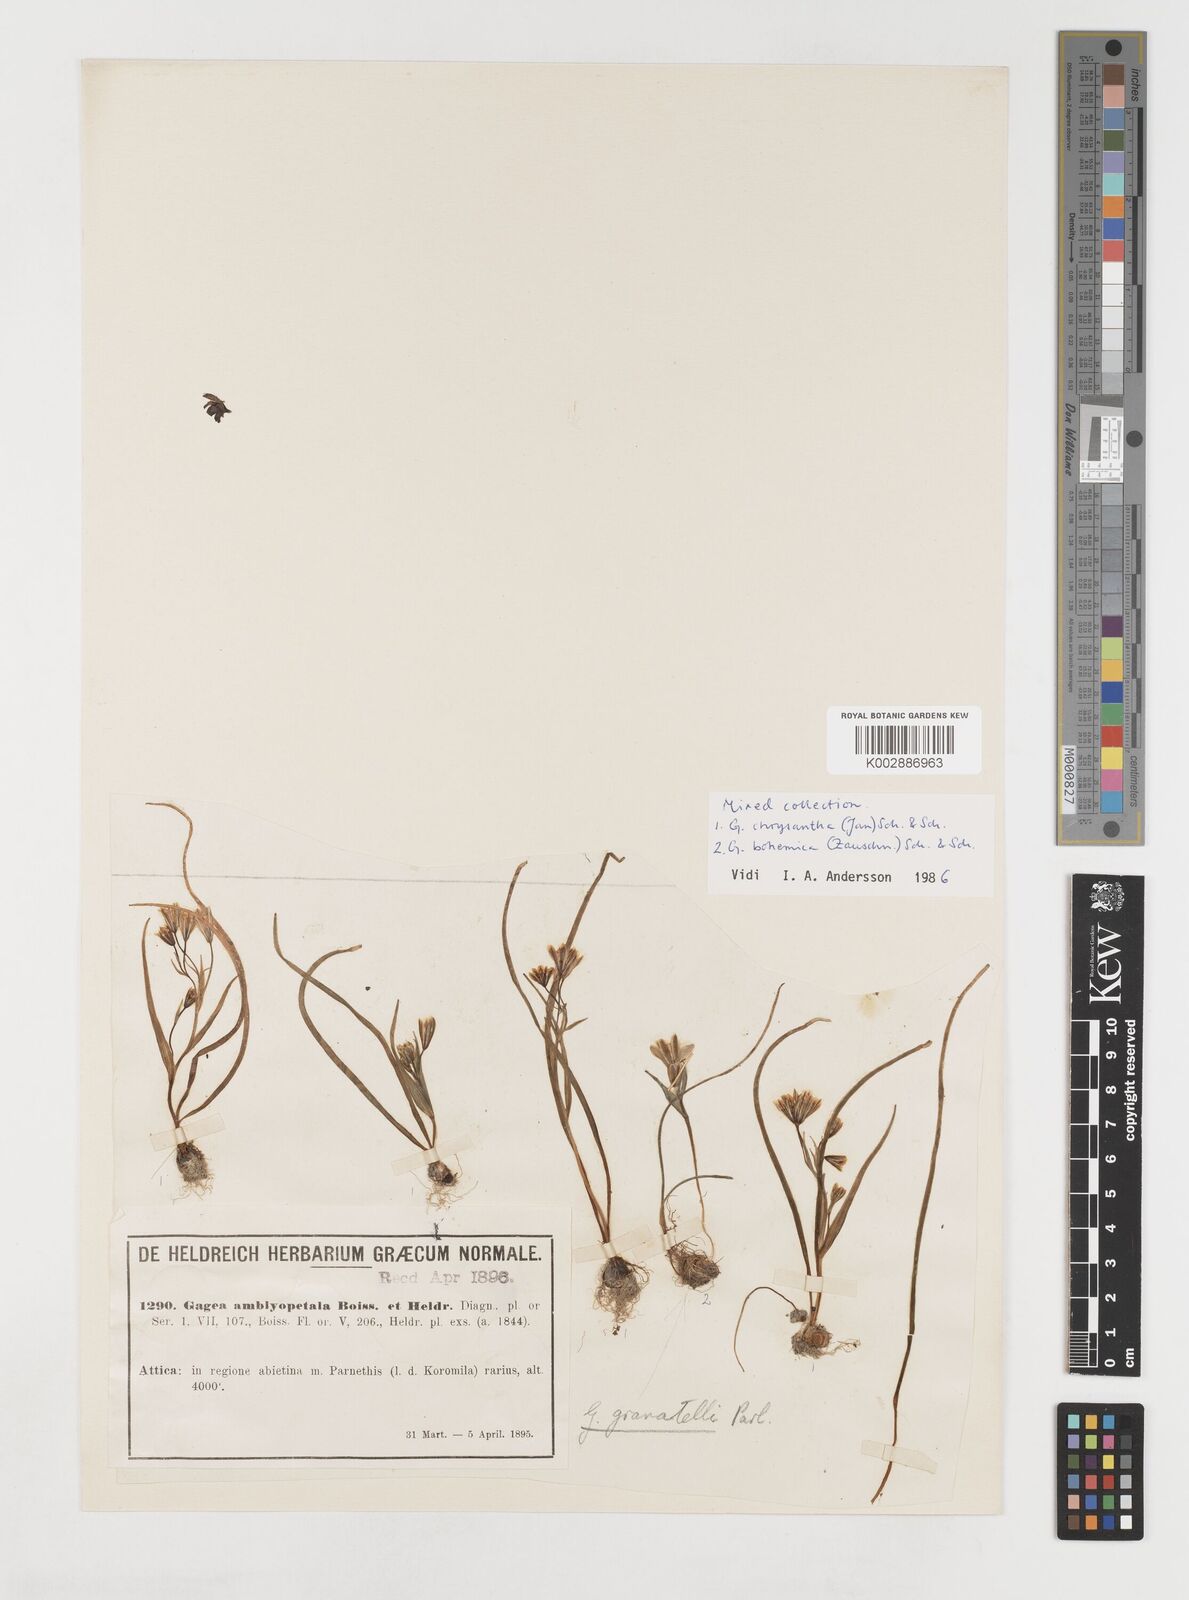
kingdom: Plantae
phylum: Tracheophyta
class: Liliopsida
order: Liliales
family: Liliaceae
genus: Gagea
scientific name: Gagea amblyopetala
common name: Blunt-flowered gagea
